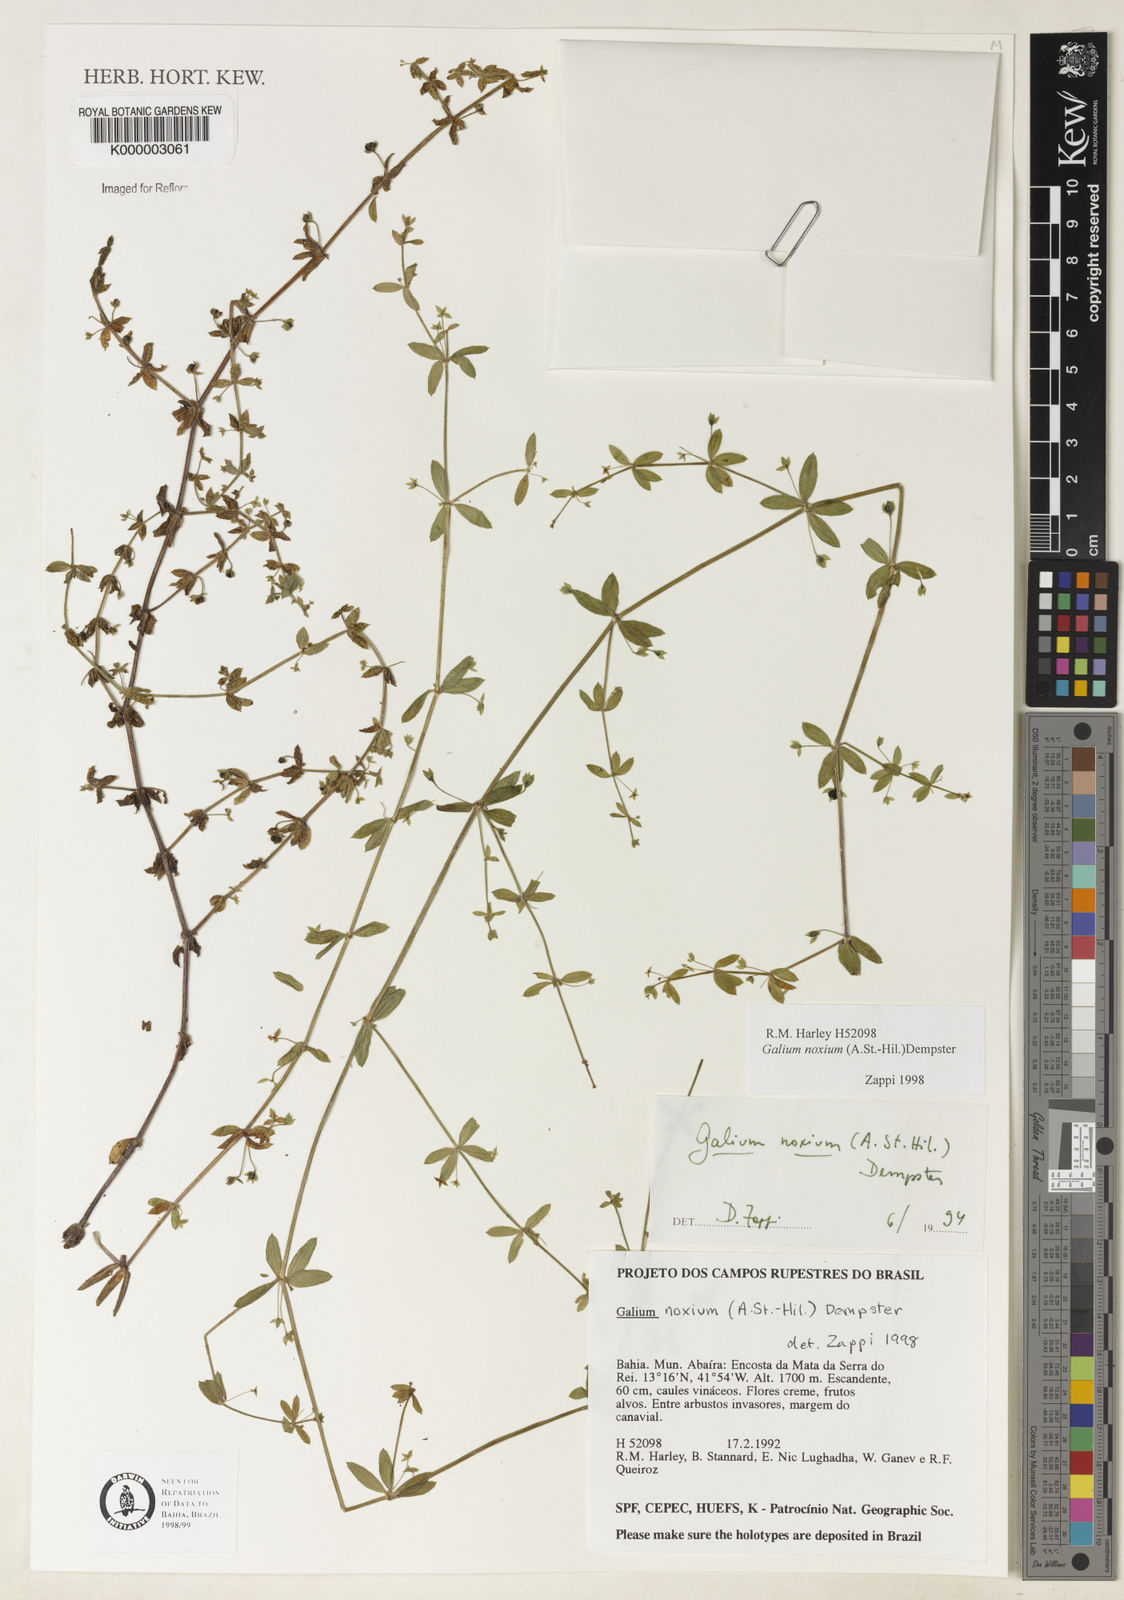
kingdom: Plantae
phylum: Tracheophyta
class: Magnoliopsida
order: Gentianales
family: Rubiaceae
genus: Galium
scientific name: Galium noxium
